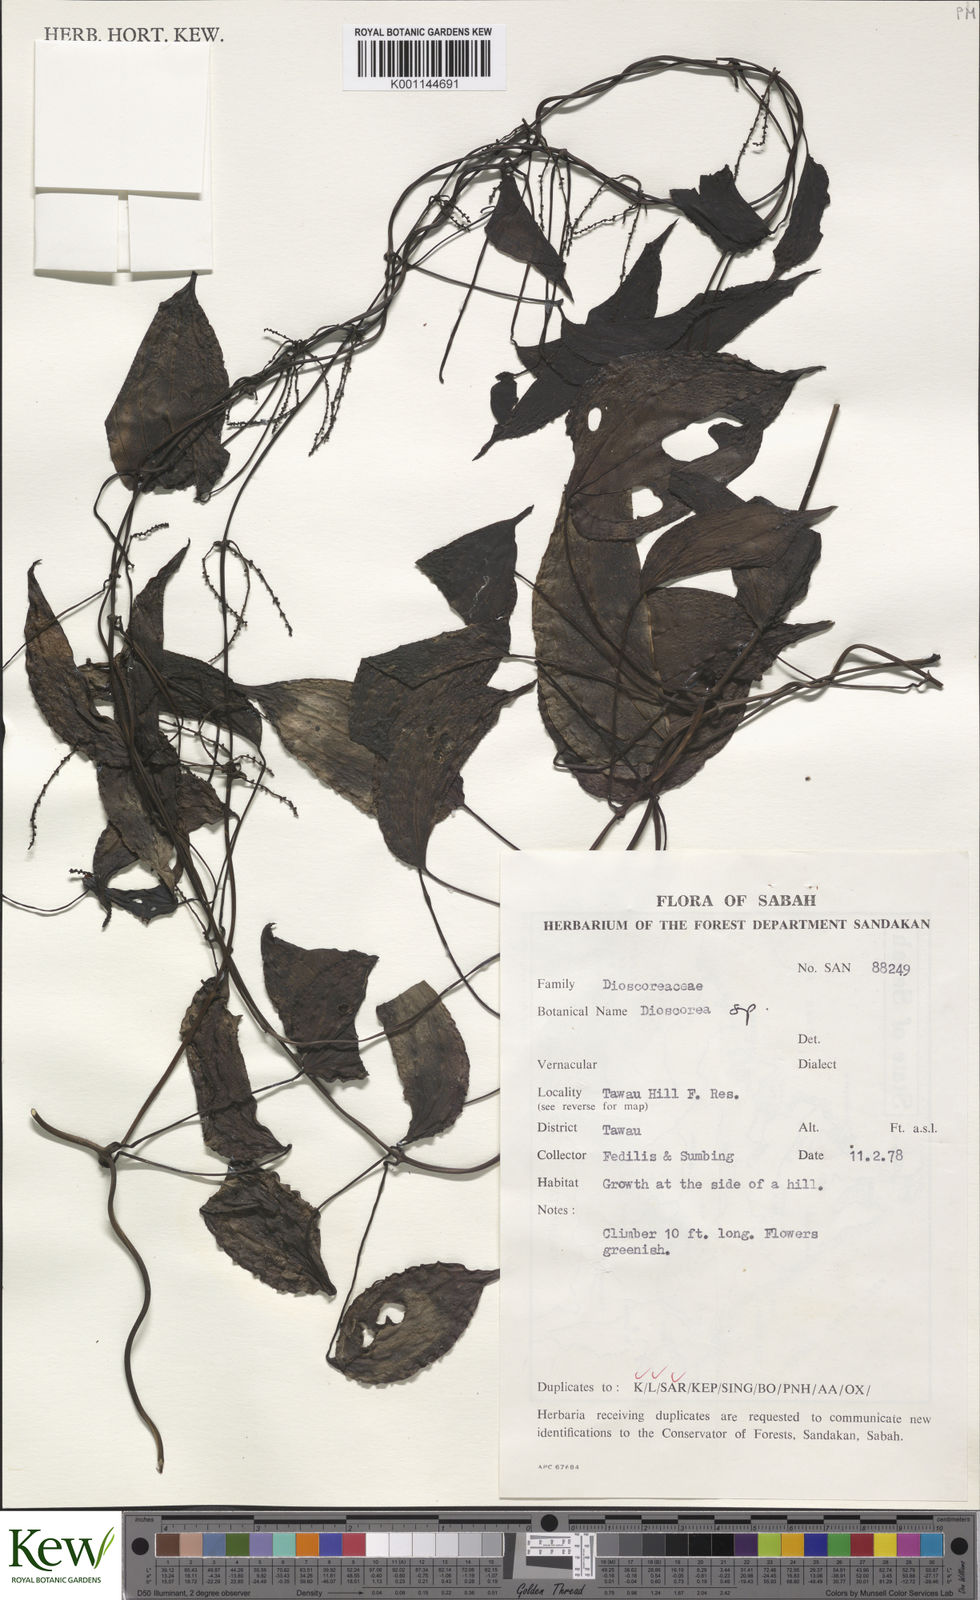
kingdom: Plantae
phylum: Tracheophyta
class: Liliopsida
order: Dioscoreales
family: Dioscoreaceae
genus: Dioscorea
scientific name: Dioscorea
